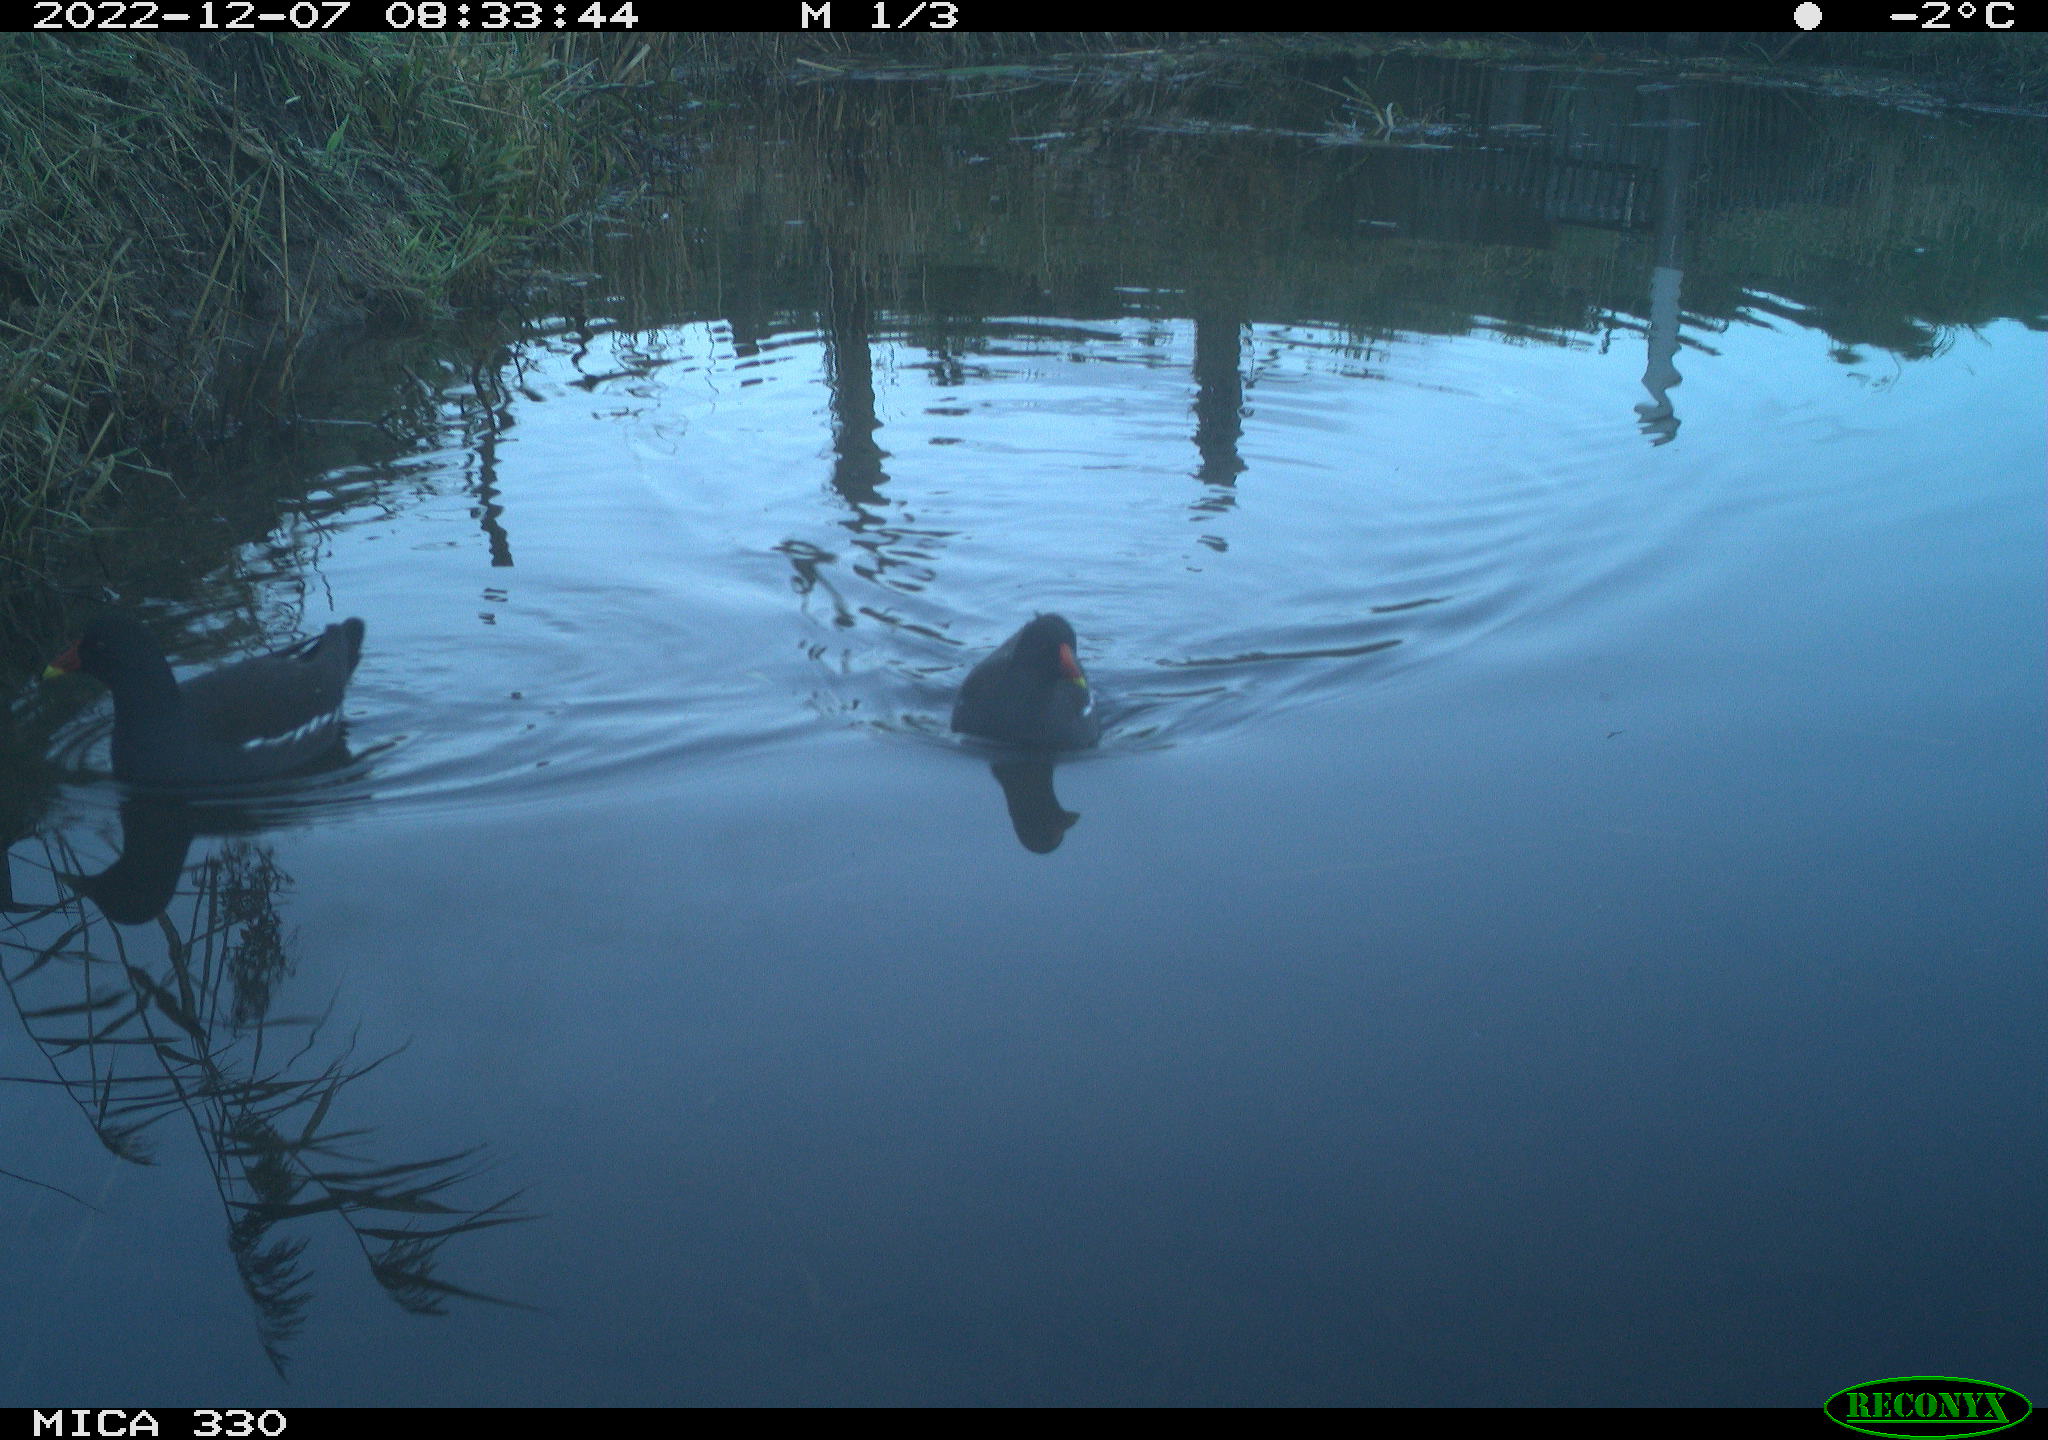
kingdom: Animalia
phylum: Chordata
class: Aves
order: Gruiformes
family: Rallidae
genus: Gallinula
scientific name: Gallinula chloropus
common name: Common moorhen
